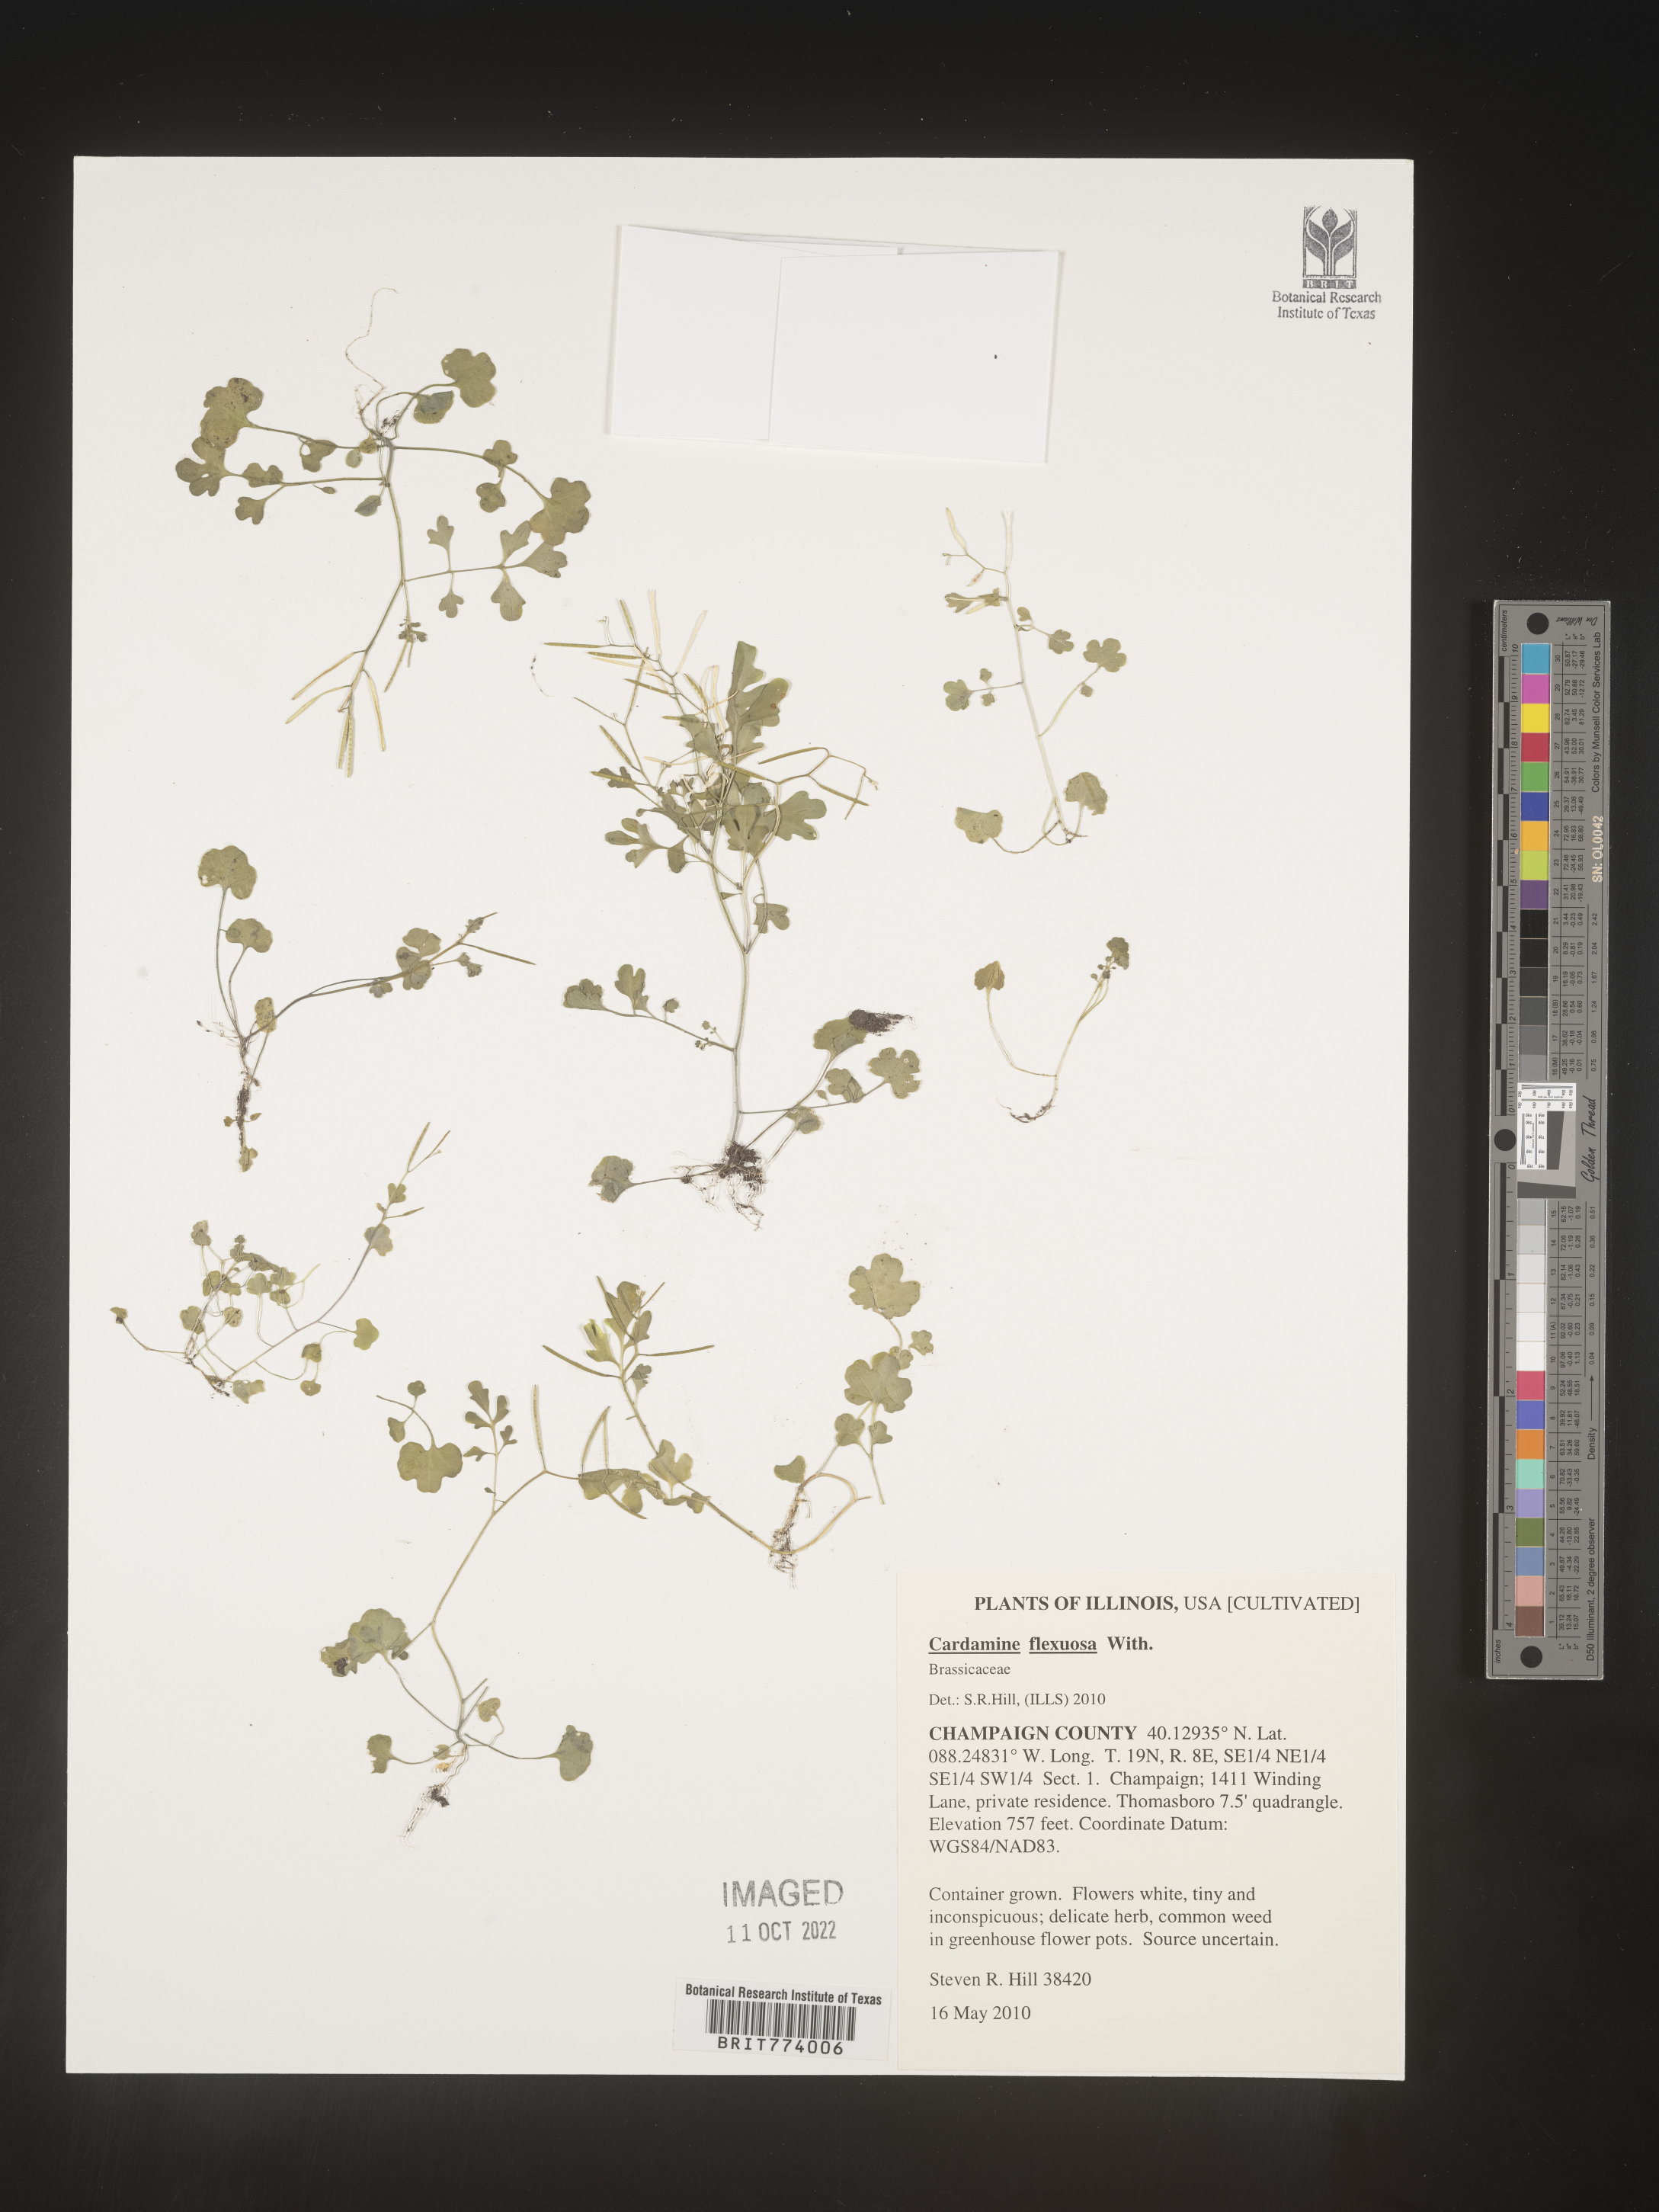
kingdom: Plantae
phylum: Tracheophyta
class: Magnoliopsida
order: Brassicales
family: Brassicaceae
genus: Cardamine
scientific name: Cardamine
